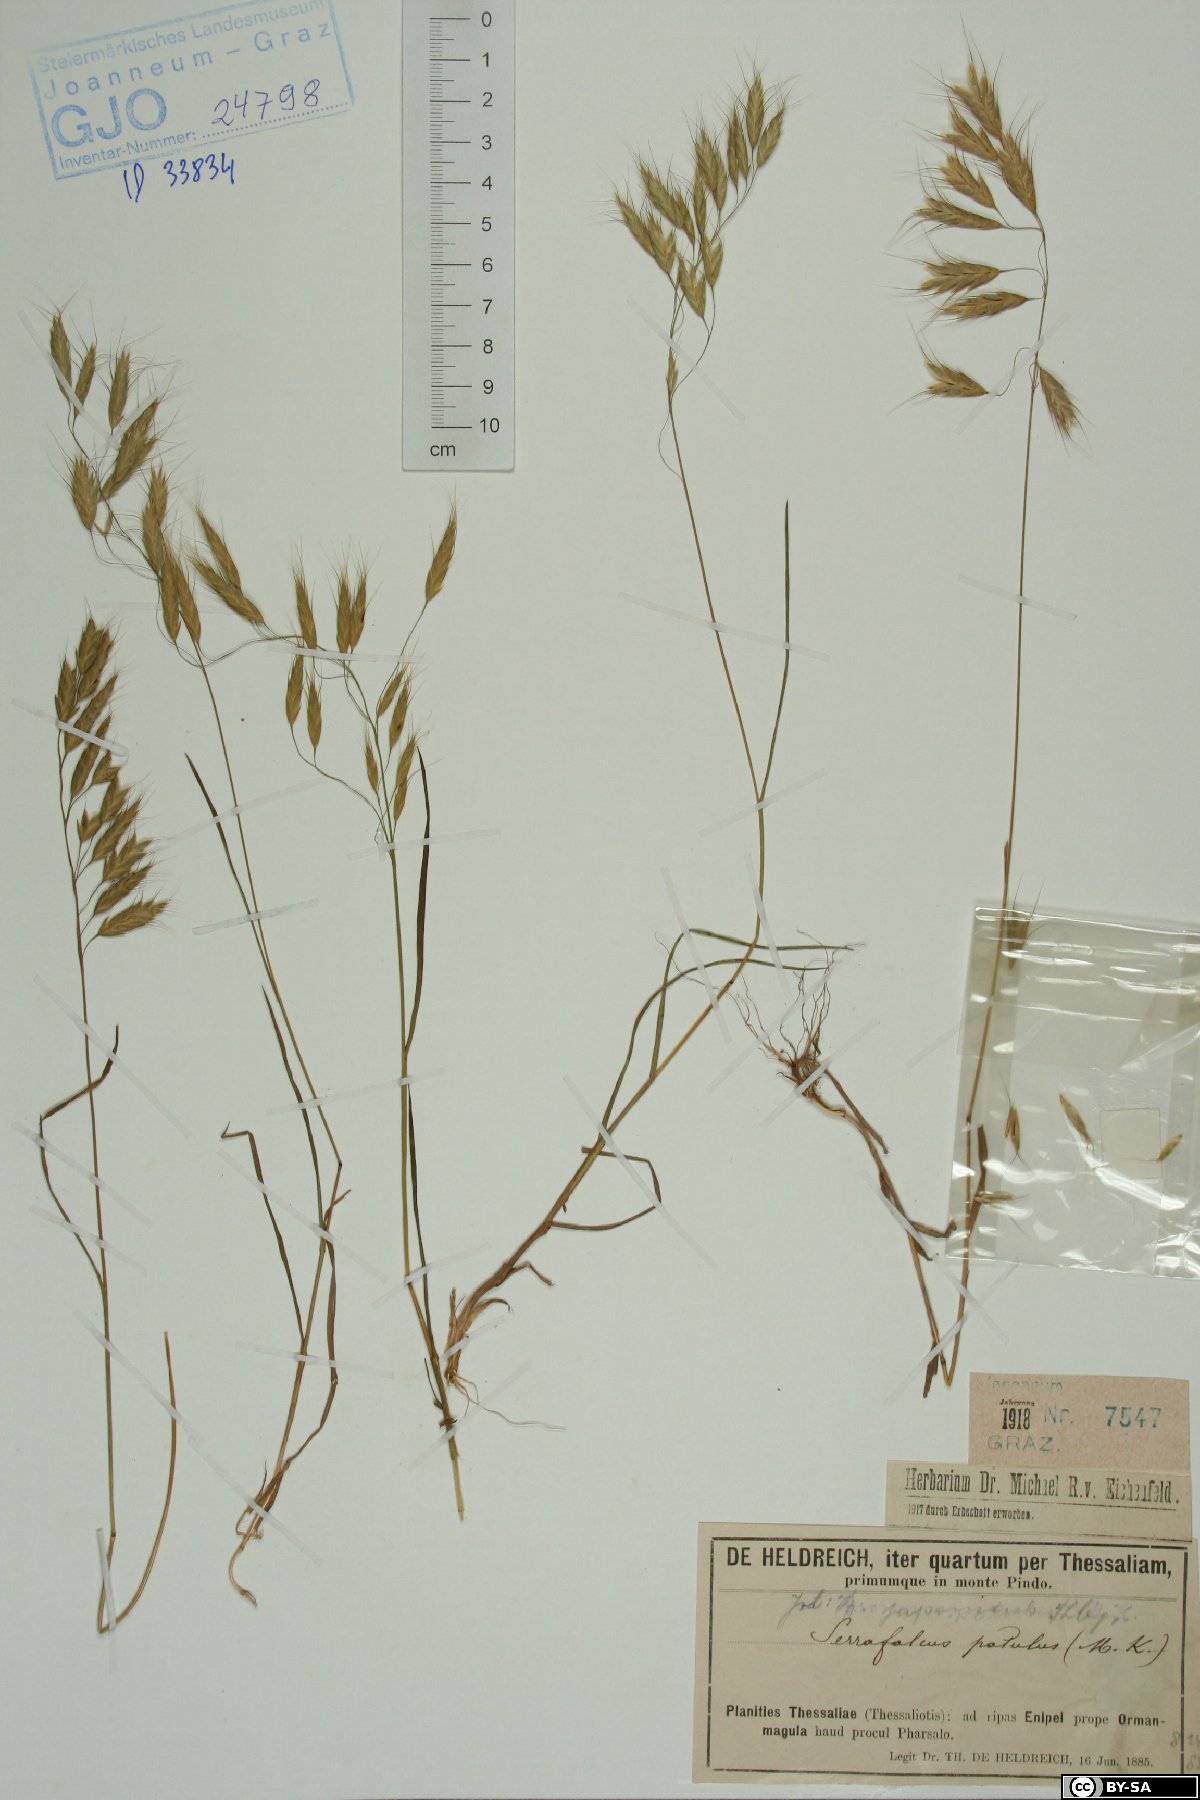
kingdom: Plantae
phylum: Tracheophyta
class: Liliopsida
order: Poales
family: Poaceae
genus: Bromus
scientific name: Bromus japonicus
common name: Japanese brome
